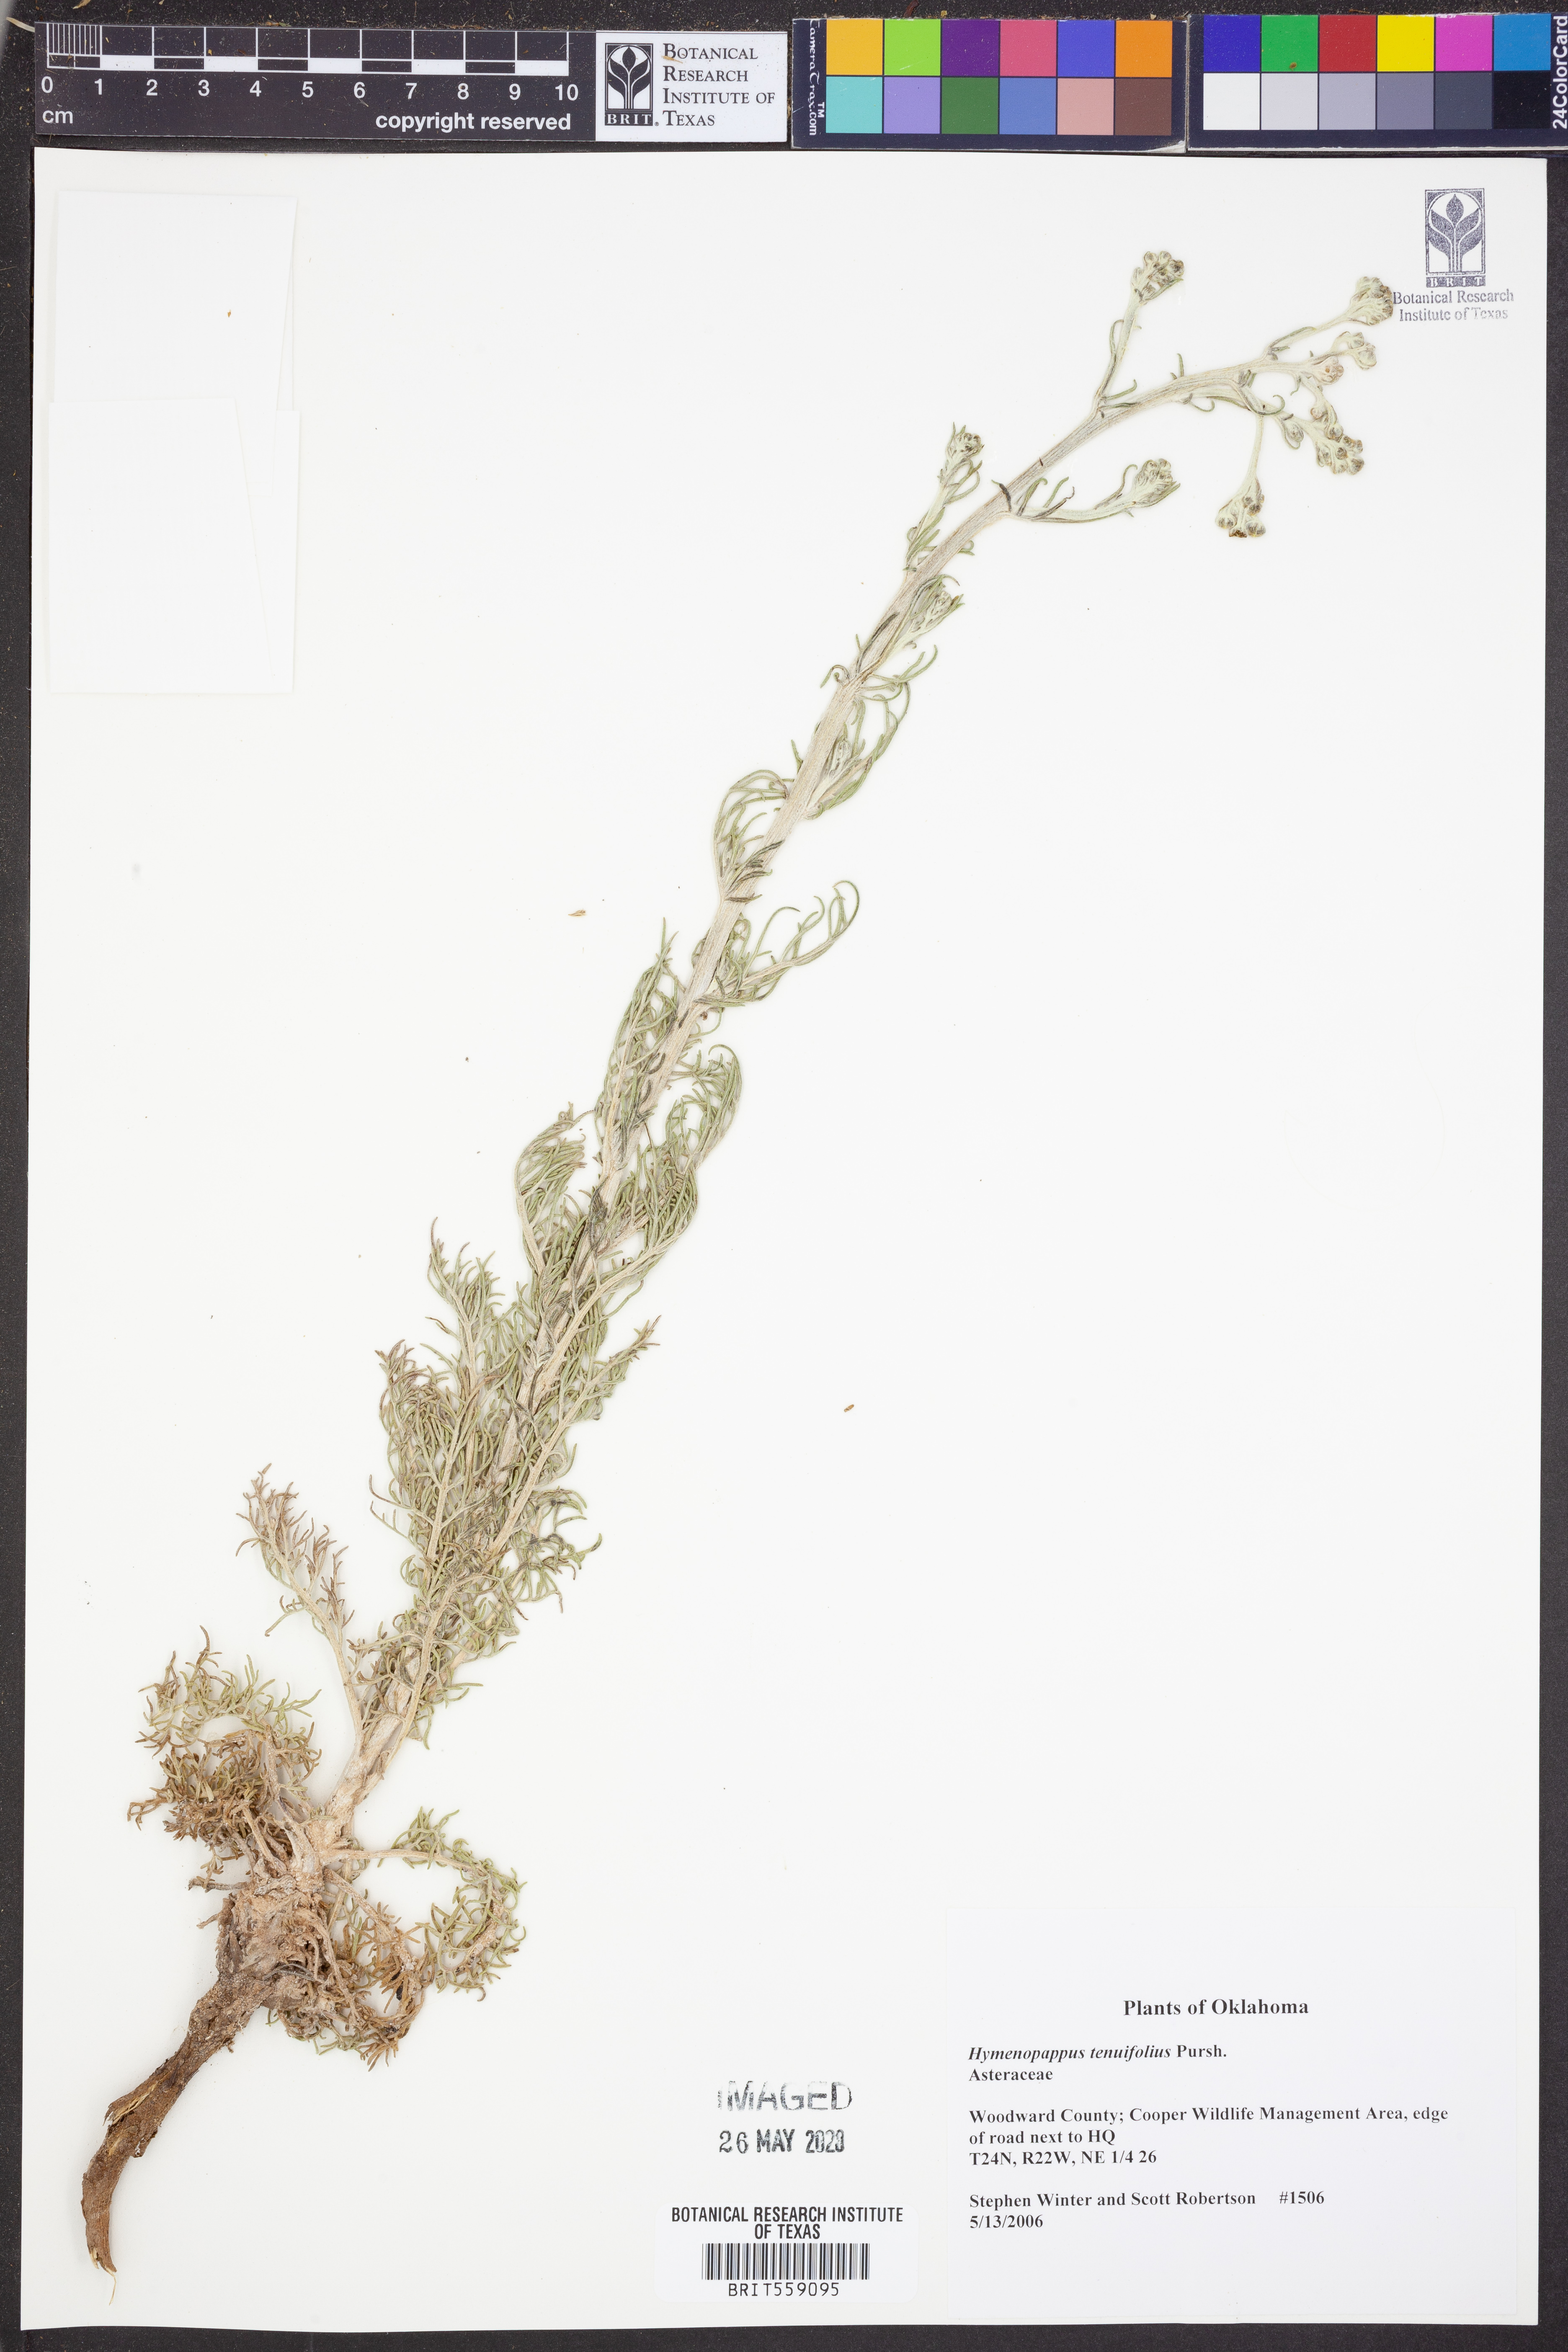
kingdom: Plantae
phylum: Tracheophyta
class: Magnoliopsida
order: Asterales
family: Asteraceae
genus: Hymenopappus
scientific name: Hymenopappus tenuifolius
